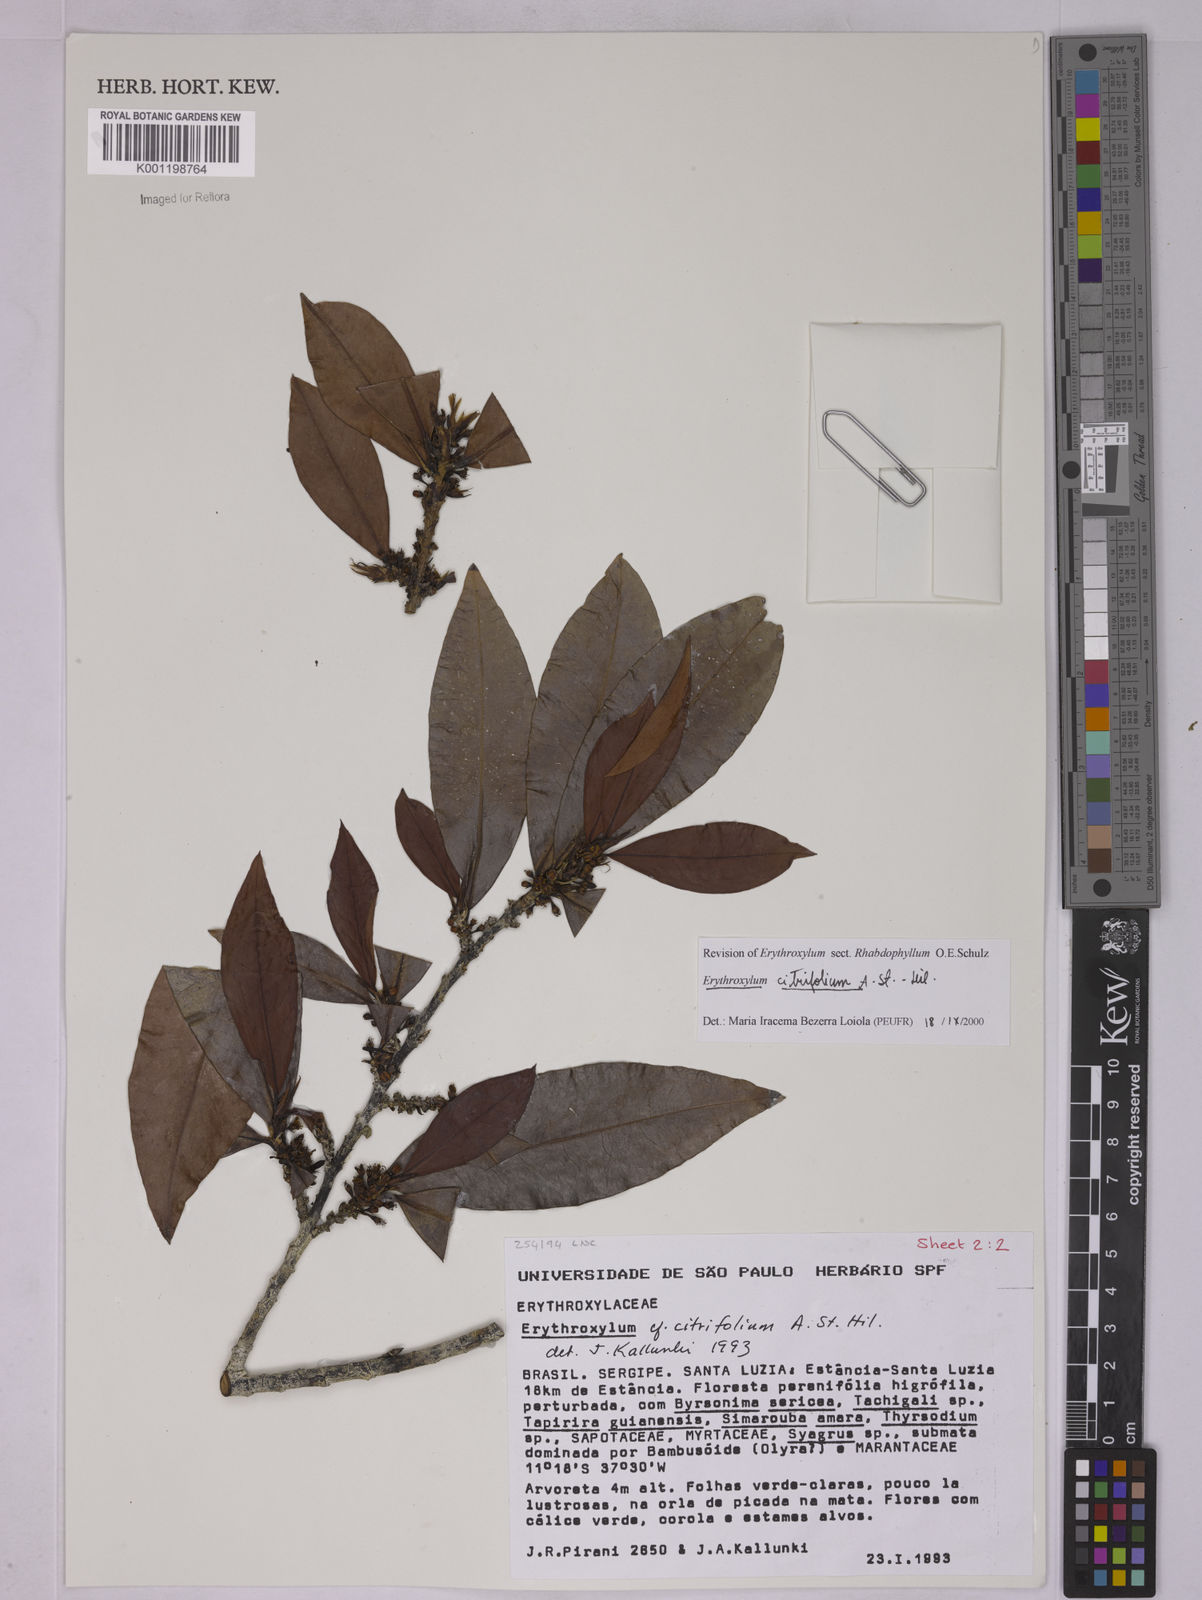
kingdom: Plantae
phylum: Tracheophyta
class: Magnoliopsida
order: Malpighiales
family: Erythroxylaceae
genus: Erythroxylum
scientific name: Erythroxylum citrifolium
